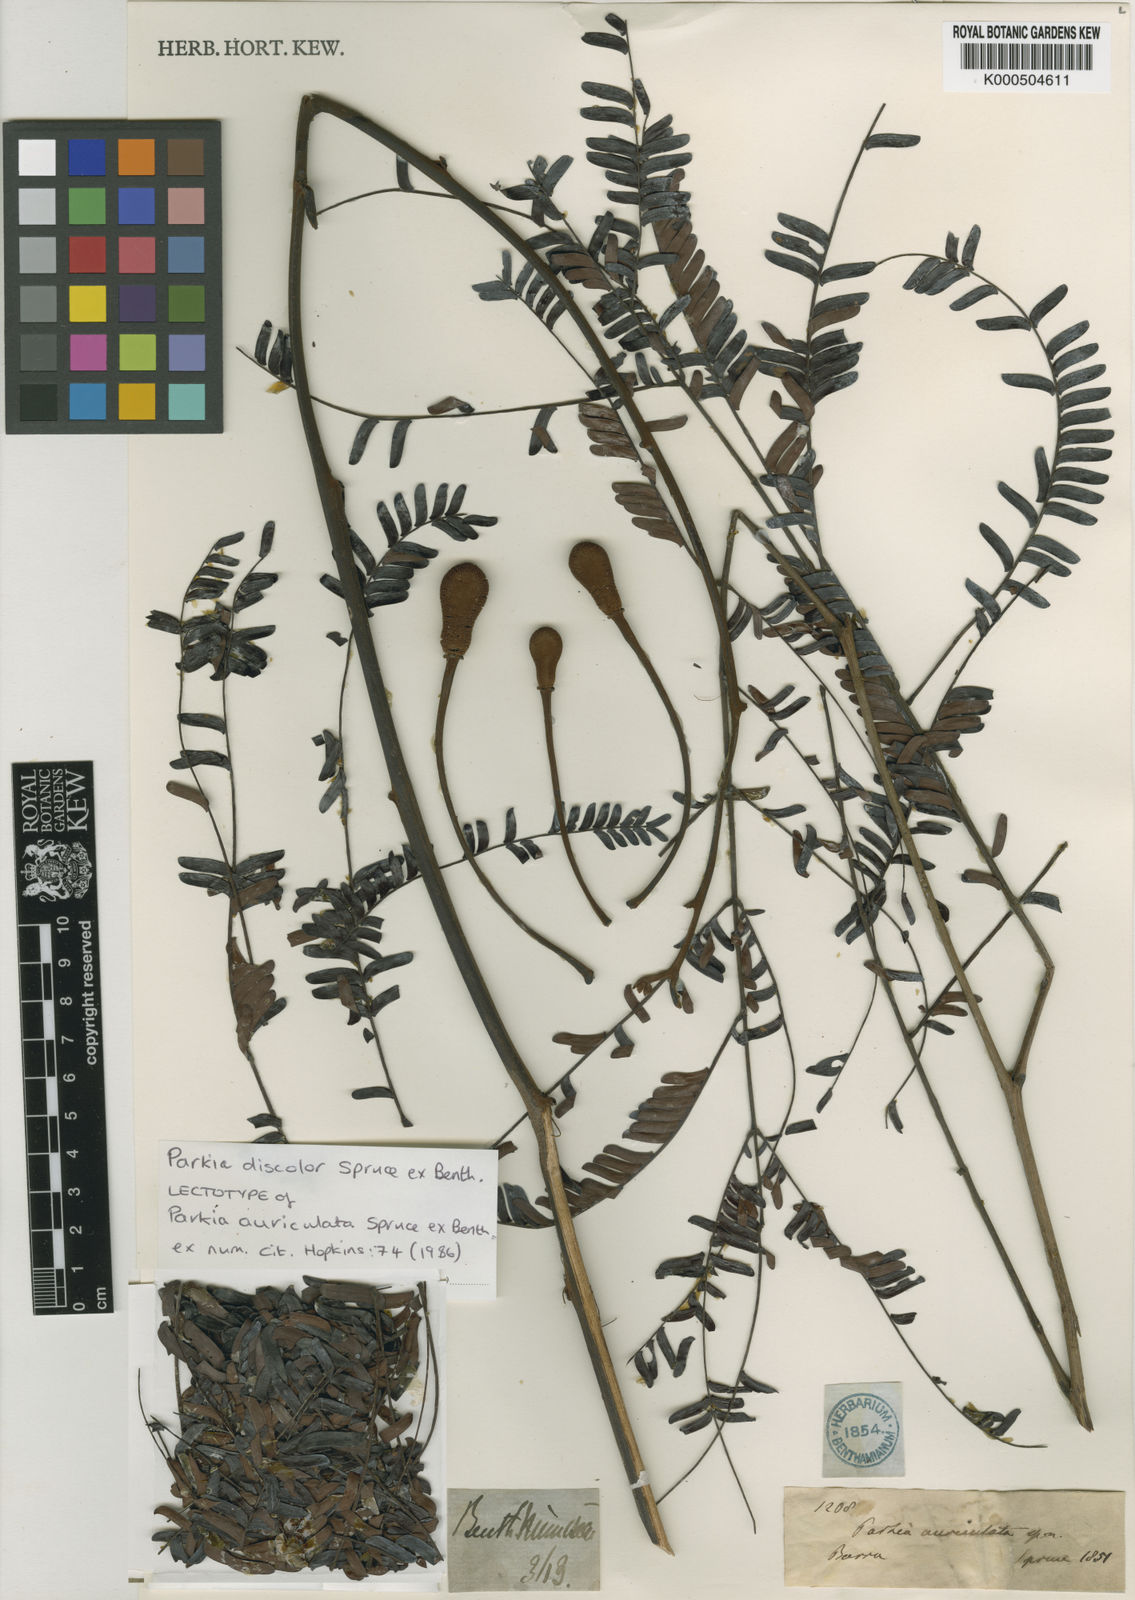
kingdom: Plantae
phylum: Tracheophyta
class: Magnoliopsida
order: Fabales
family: Fabaceae
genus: Parkia
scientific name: Parkia discolor
